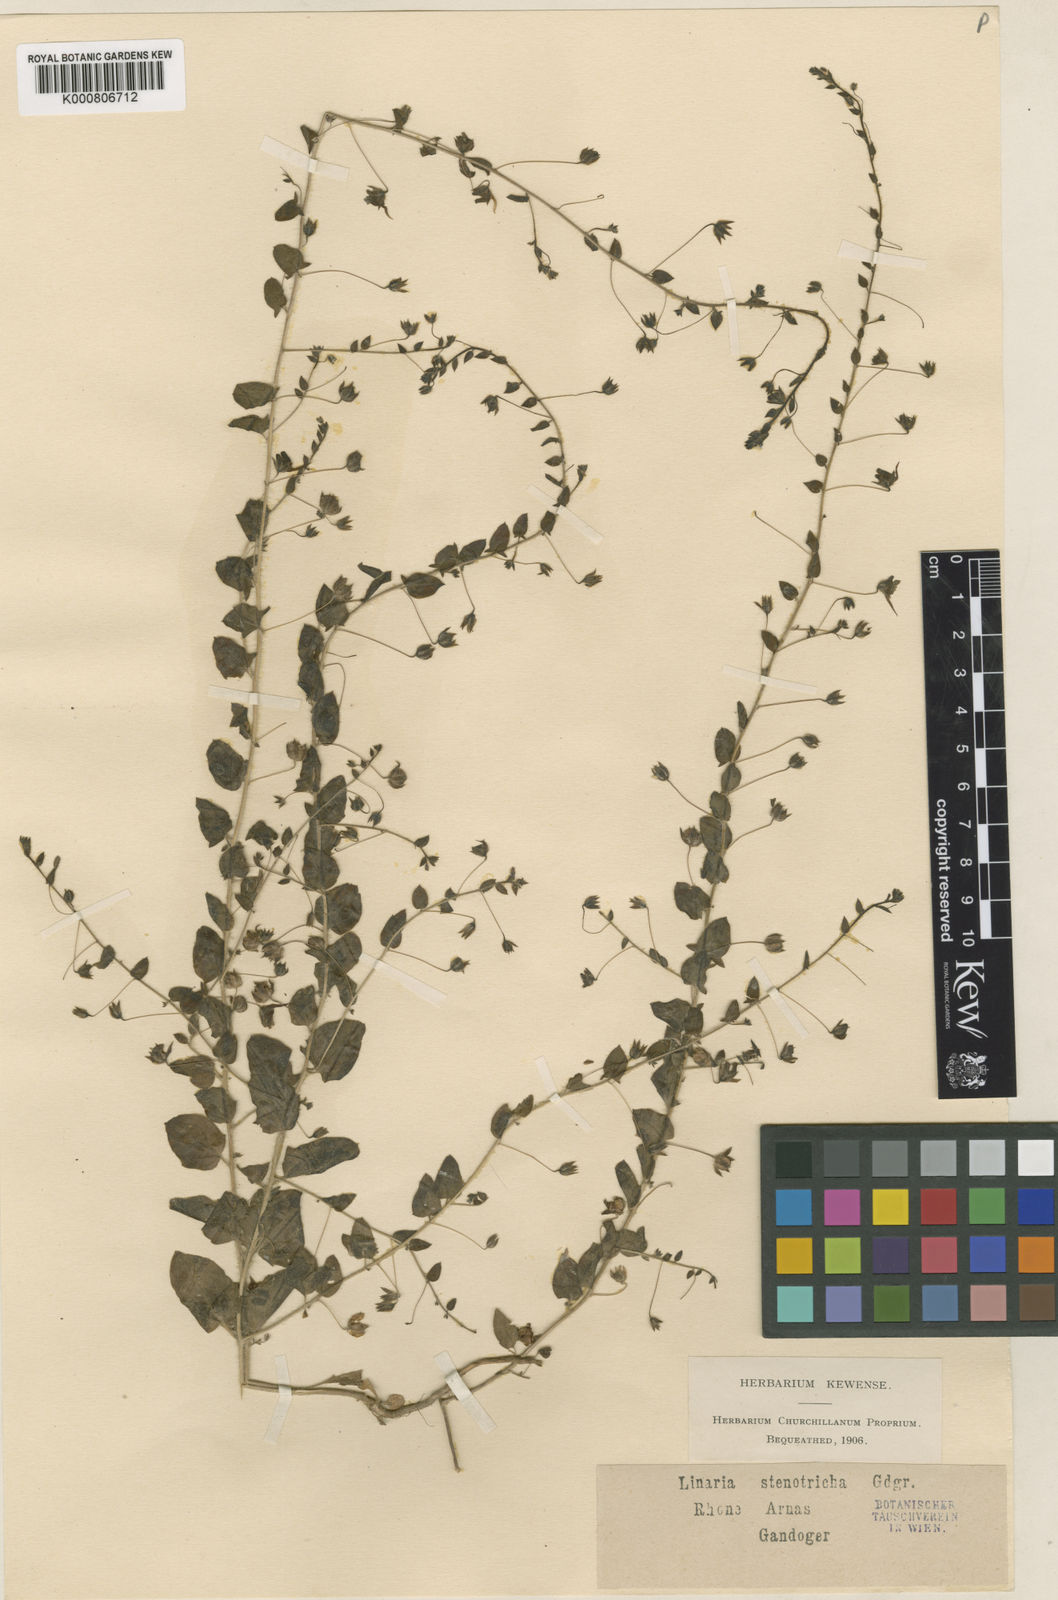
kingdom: Plantae
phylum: Tracheophyta
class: Magnoliopsida
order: Lamiales
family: Plantaginaceae
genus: Kickxia
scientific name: Kickxia elatine
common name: Sharp-leaved fluellen
